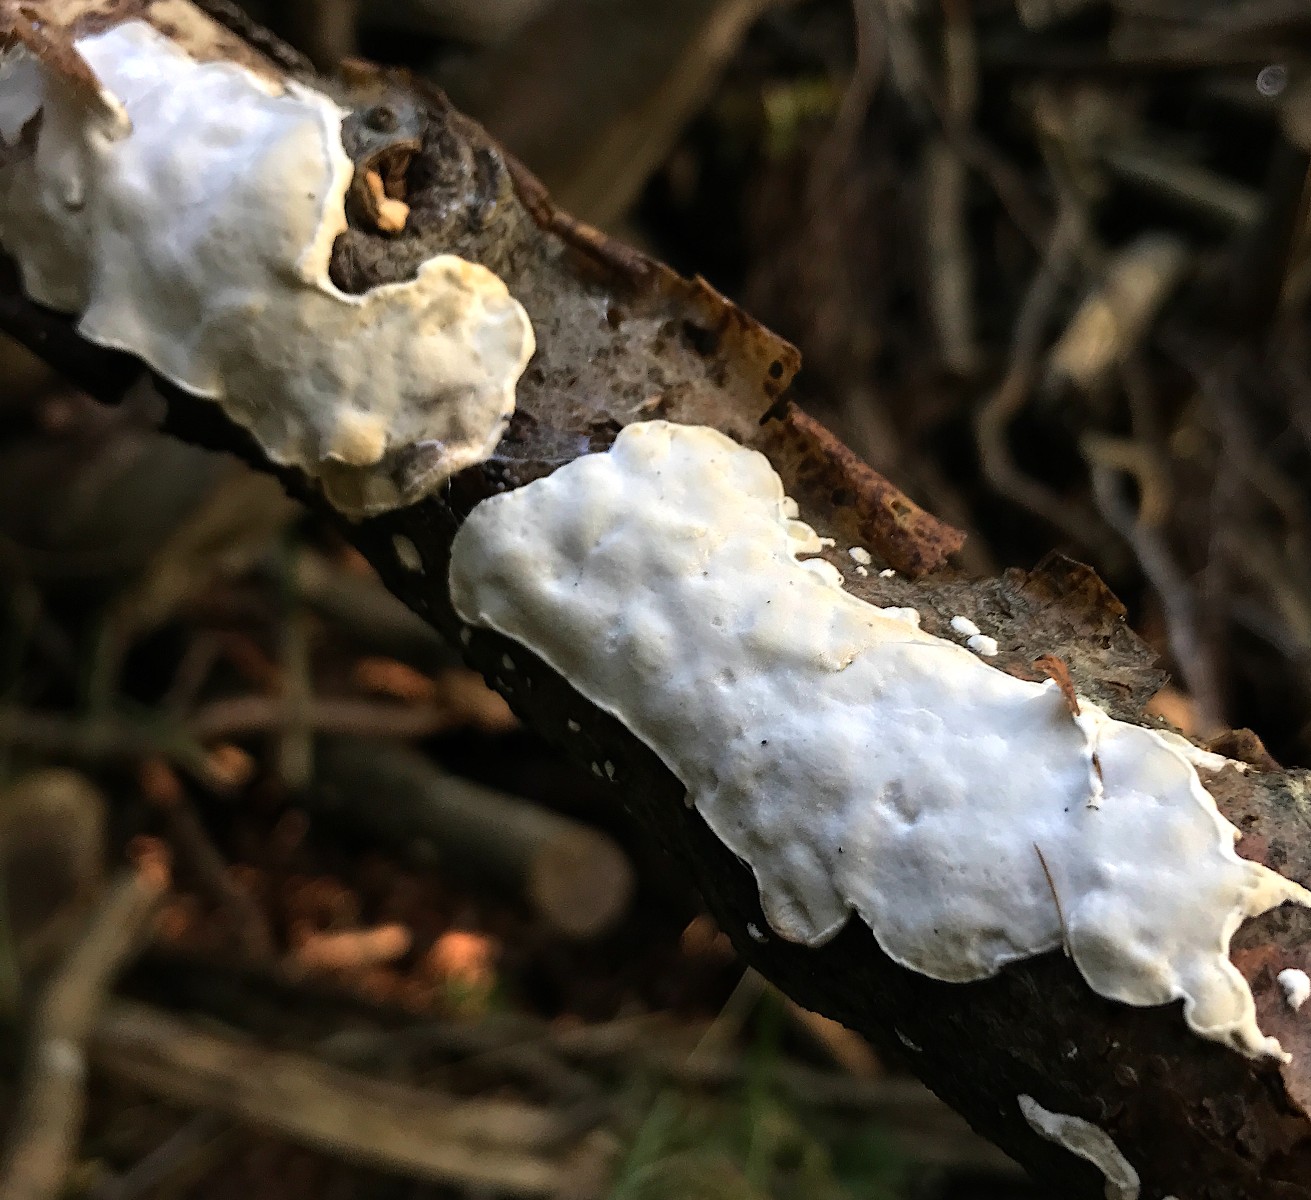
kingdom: Fungi
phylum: Basidiomycota
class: Agaricomycetes
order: Polyporales
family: Incrustoporiaceae
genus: Skeletocutis
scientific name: Skeletocutis nemoralis
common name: stor krystalporesvamp
